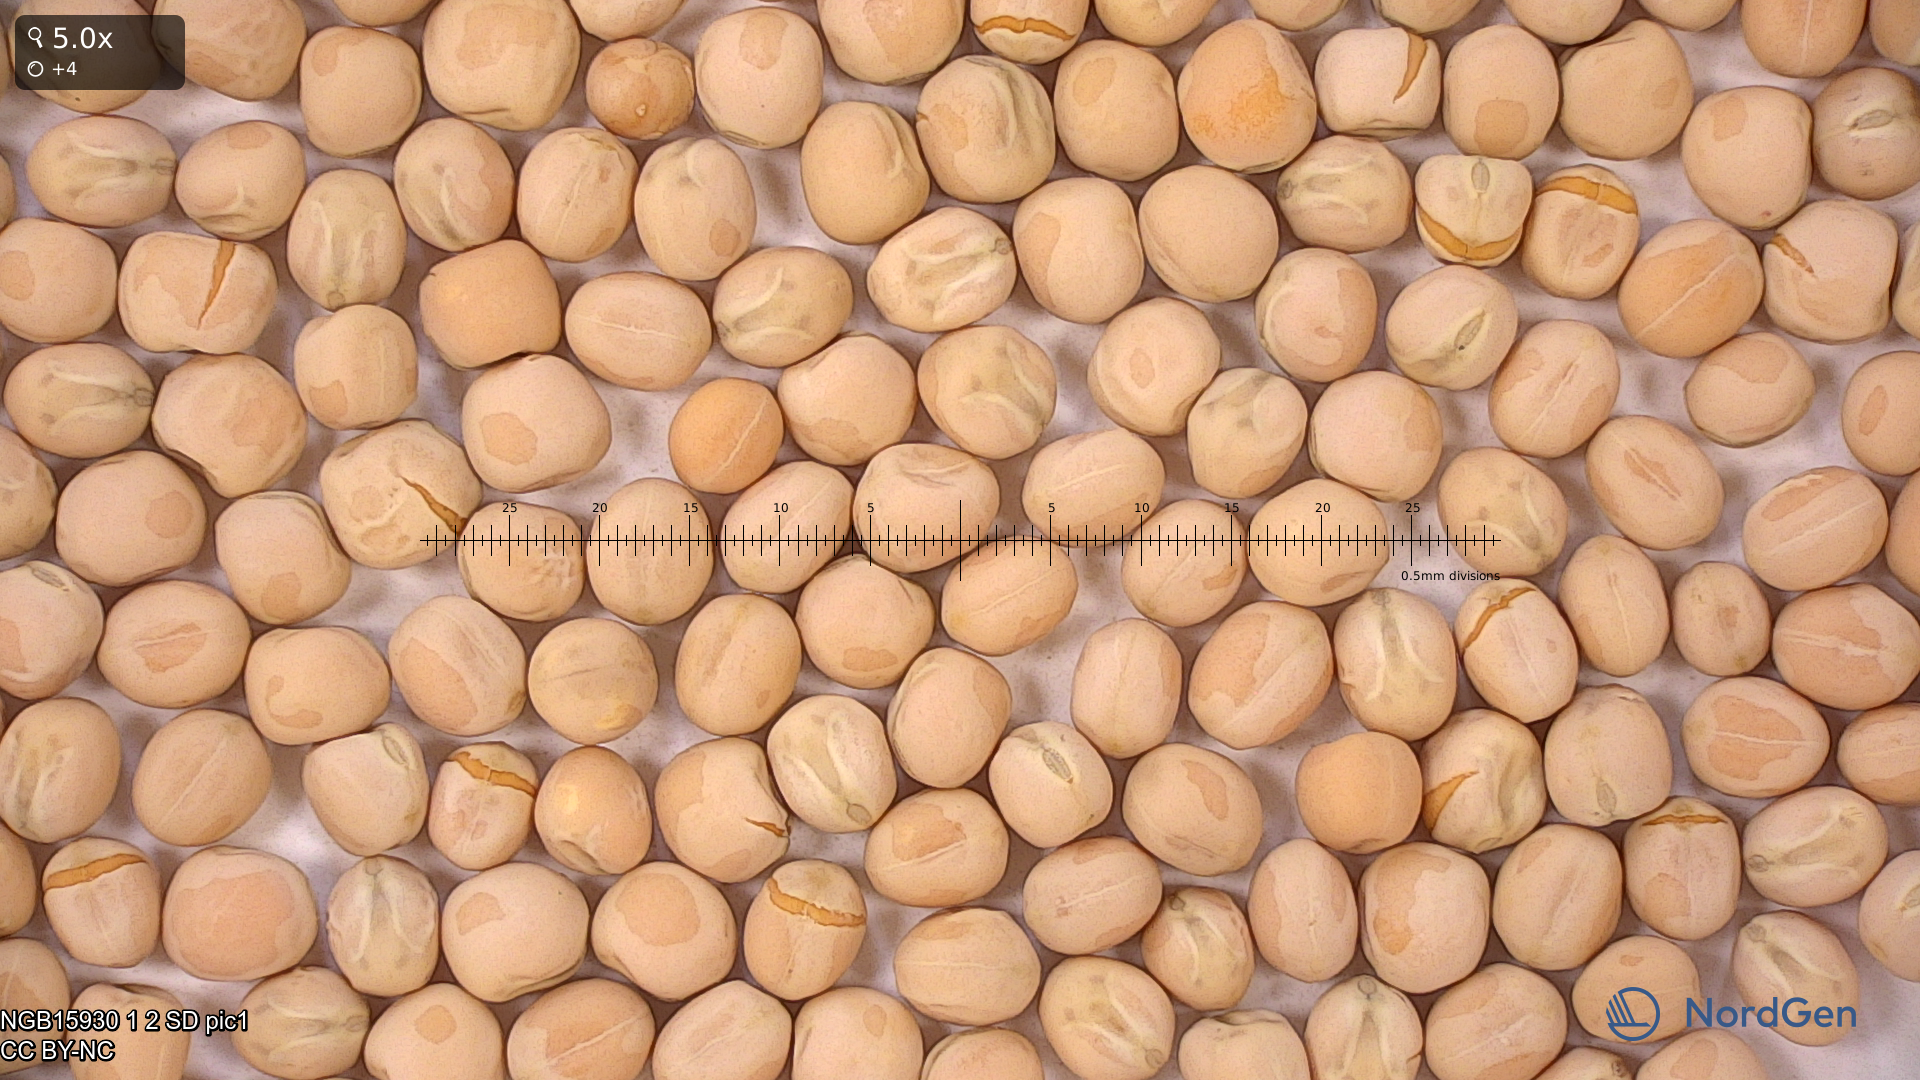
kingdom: Plantae
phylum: Tracheophyta
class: Magnoliopsida
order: Fabales
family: Fabaceae
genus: Lathyrus
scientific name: Lathyrus oleraceus
